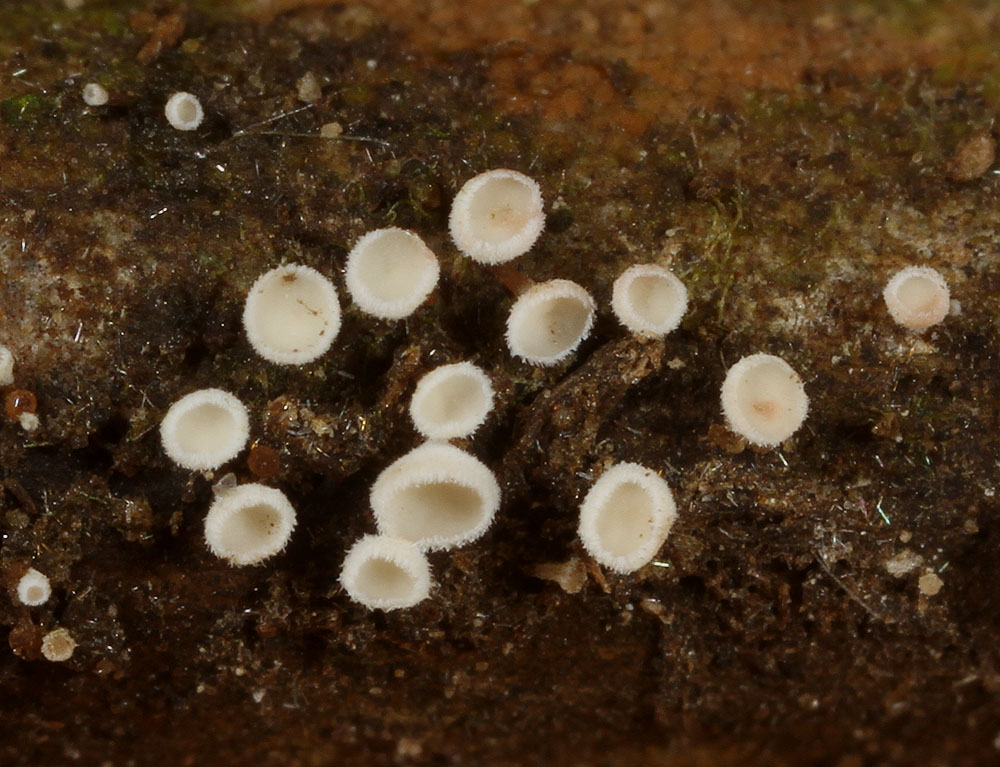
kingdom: Fungi
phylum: Ascomycota
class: Leotiomycetes
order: Helotiales
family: Lachnaceae
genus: Lachnum
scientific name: Lachnum controversum
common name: tagrør-frynseskive
